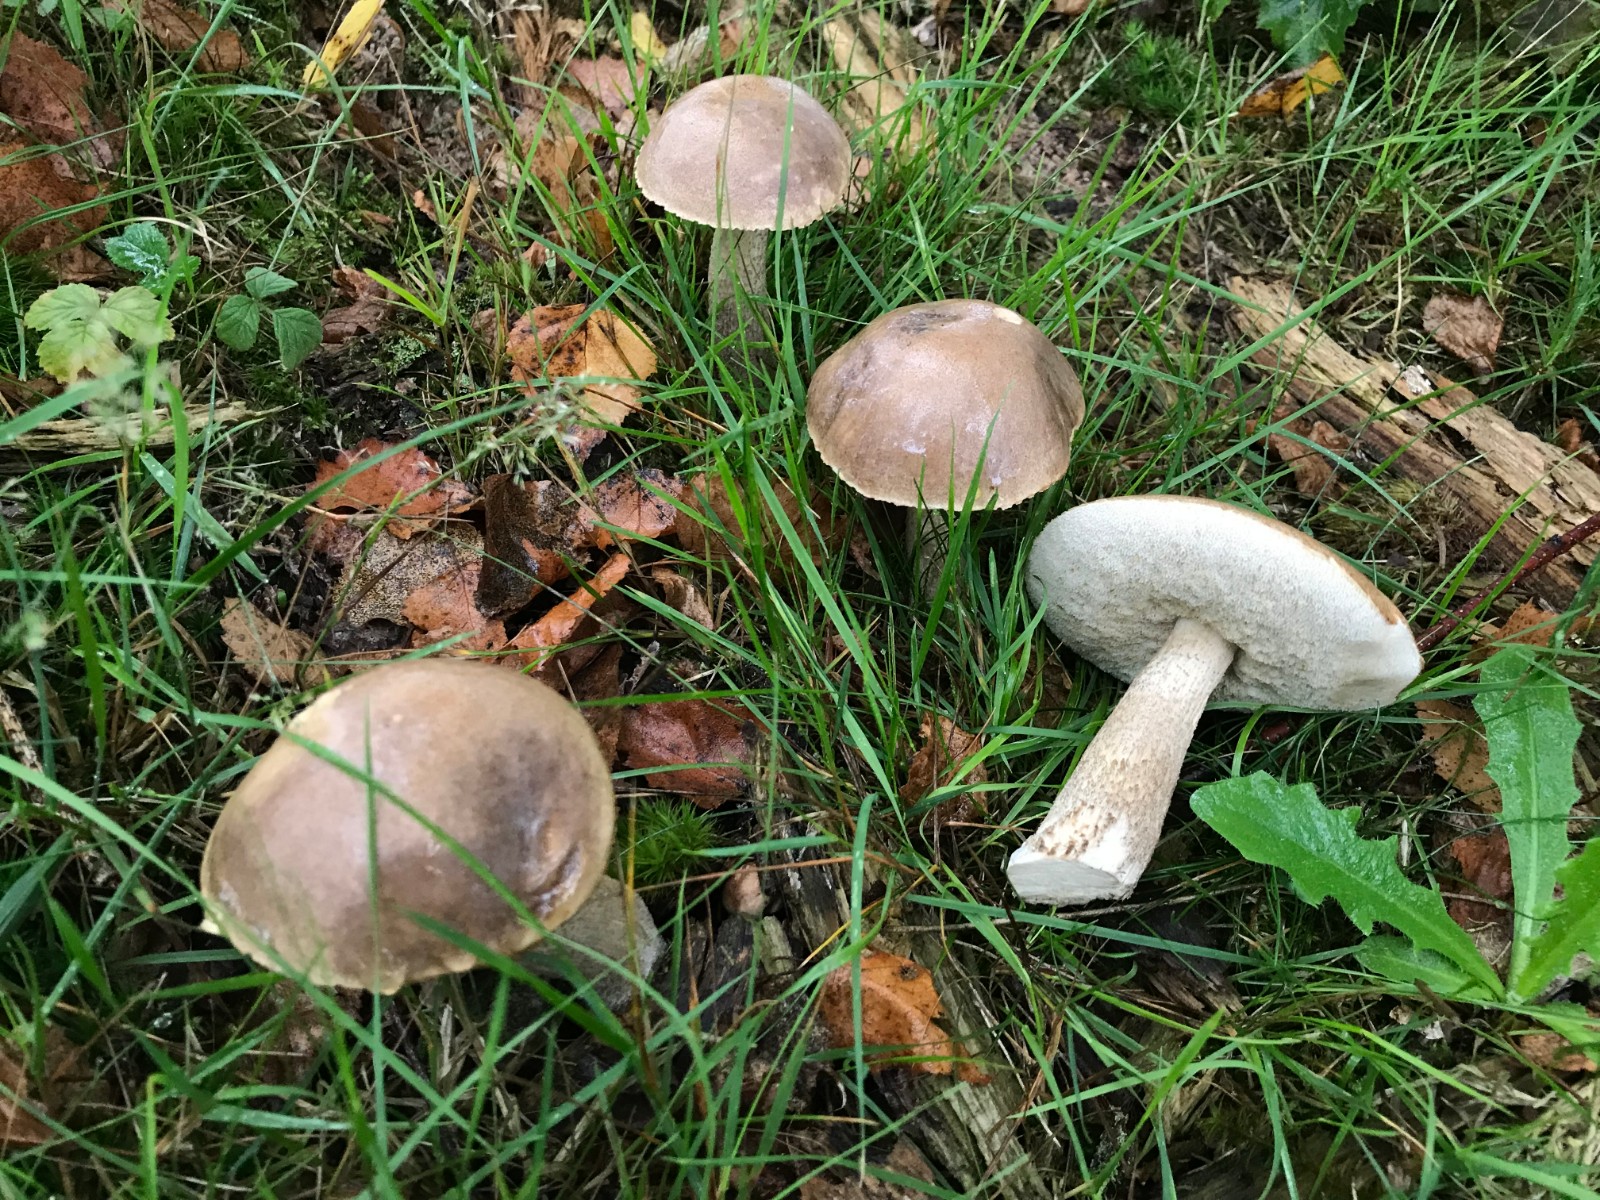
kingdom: Fungi
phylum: Basidiomycota
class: Agaricomycetes
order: Boletales
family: Boletaceae
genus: Leccinum
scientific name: Leccinum
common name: skælrørhat
